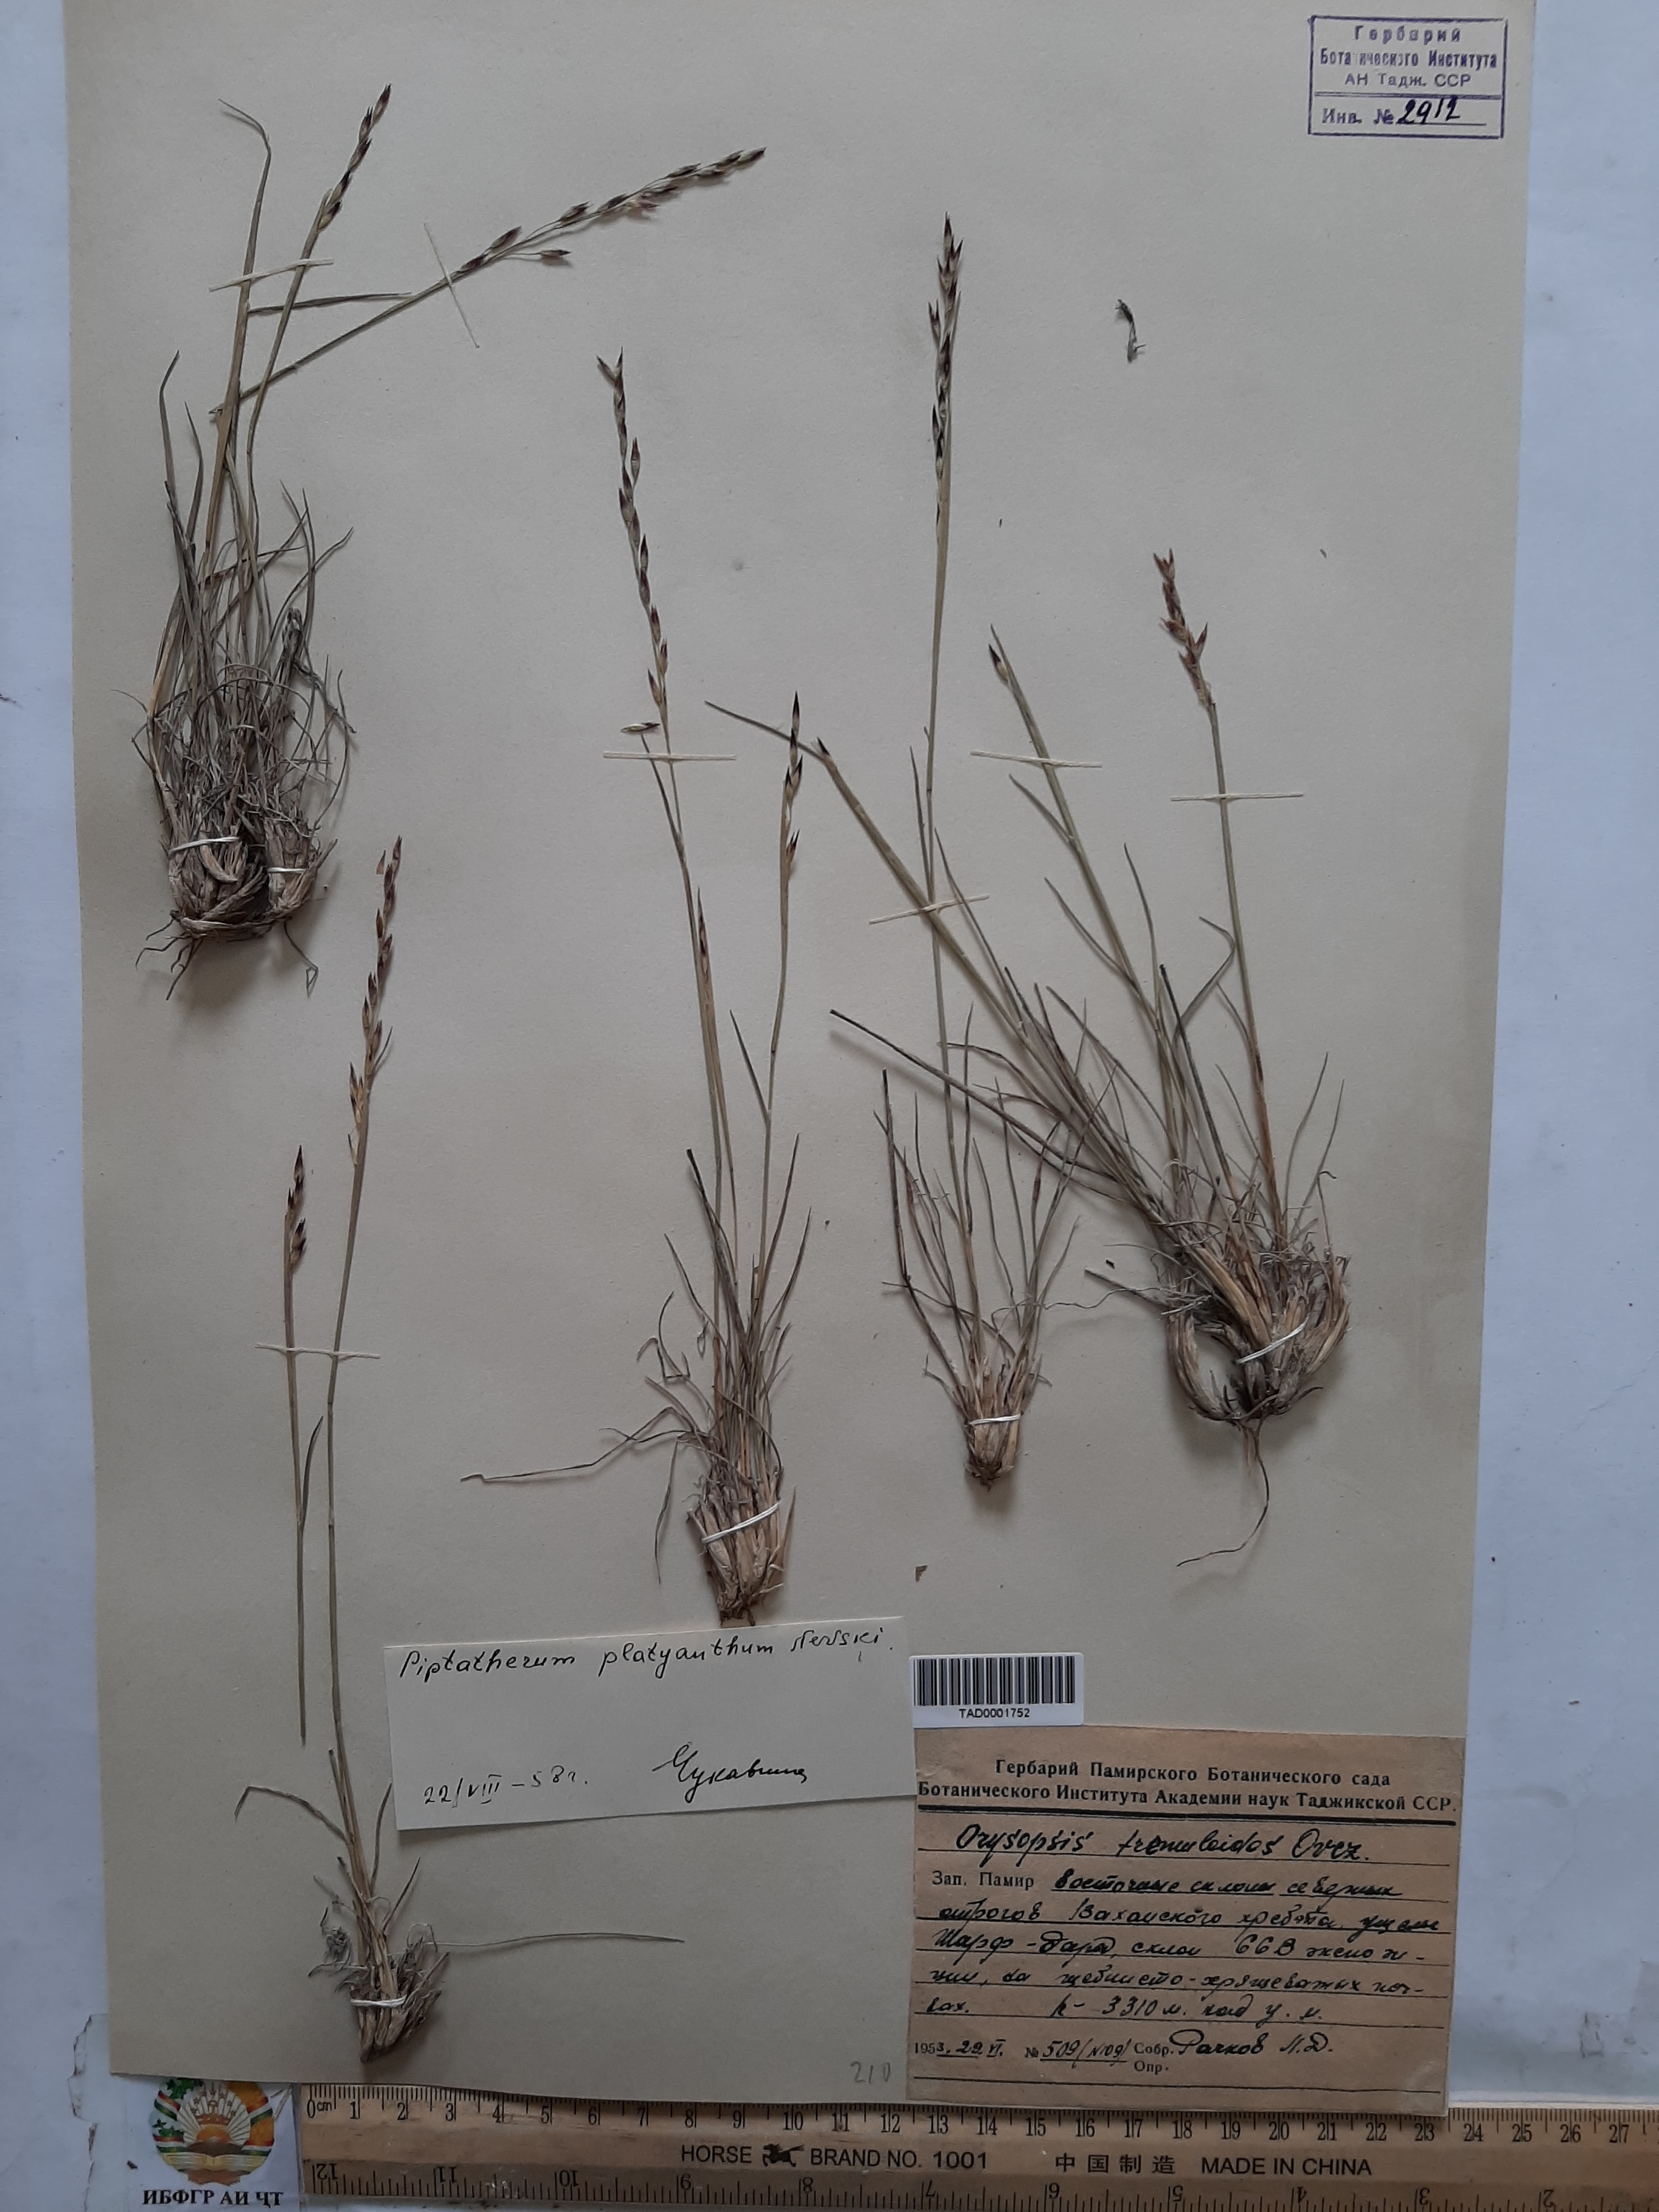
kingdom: Plantae
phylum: Tracheophyta
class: Liliopsida
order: Poales
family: Poaceae
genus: Piptatherum
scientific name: Piptatherum platyanthum
